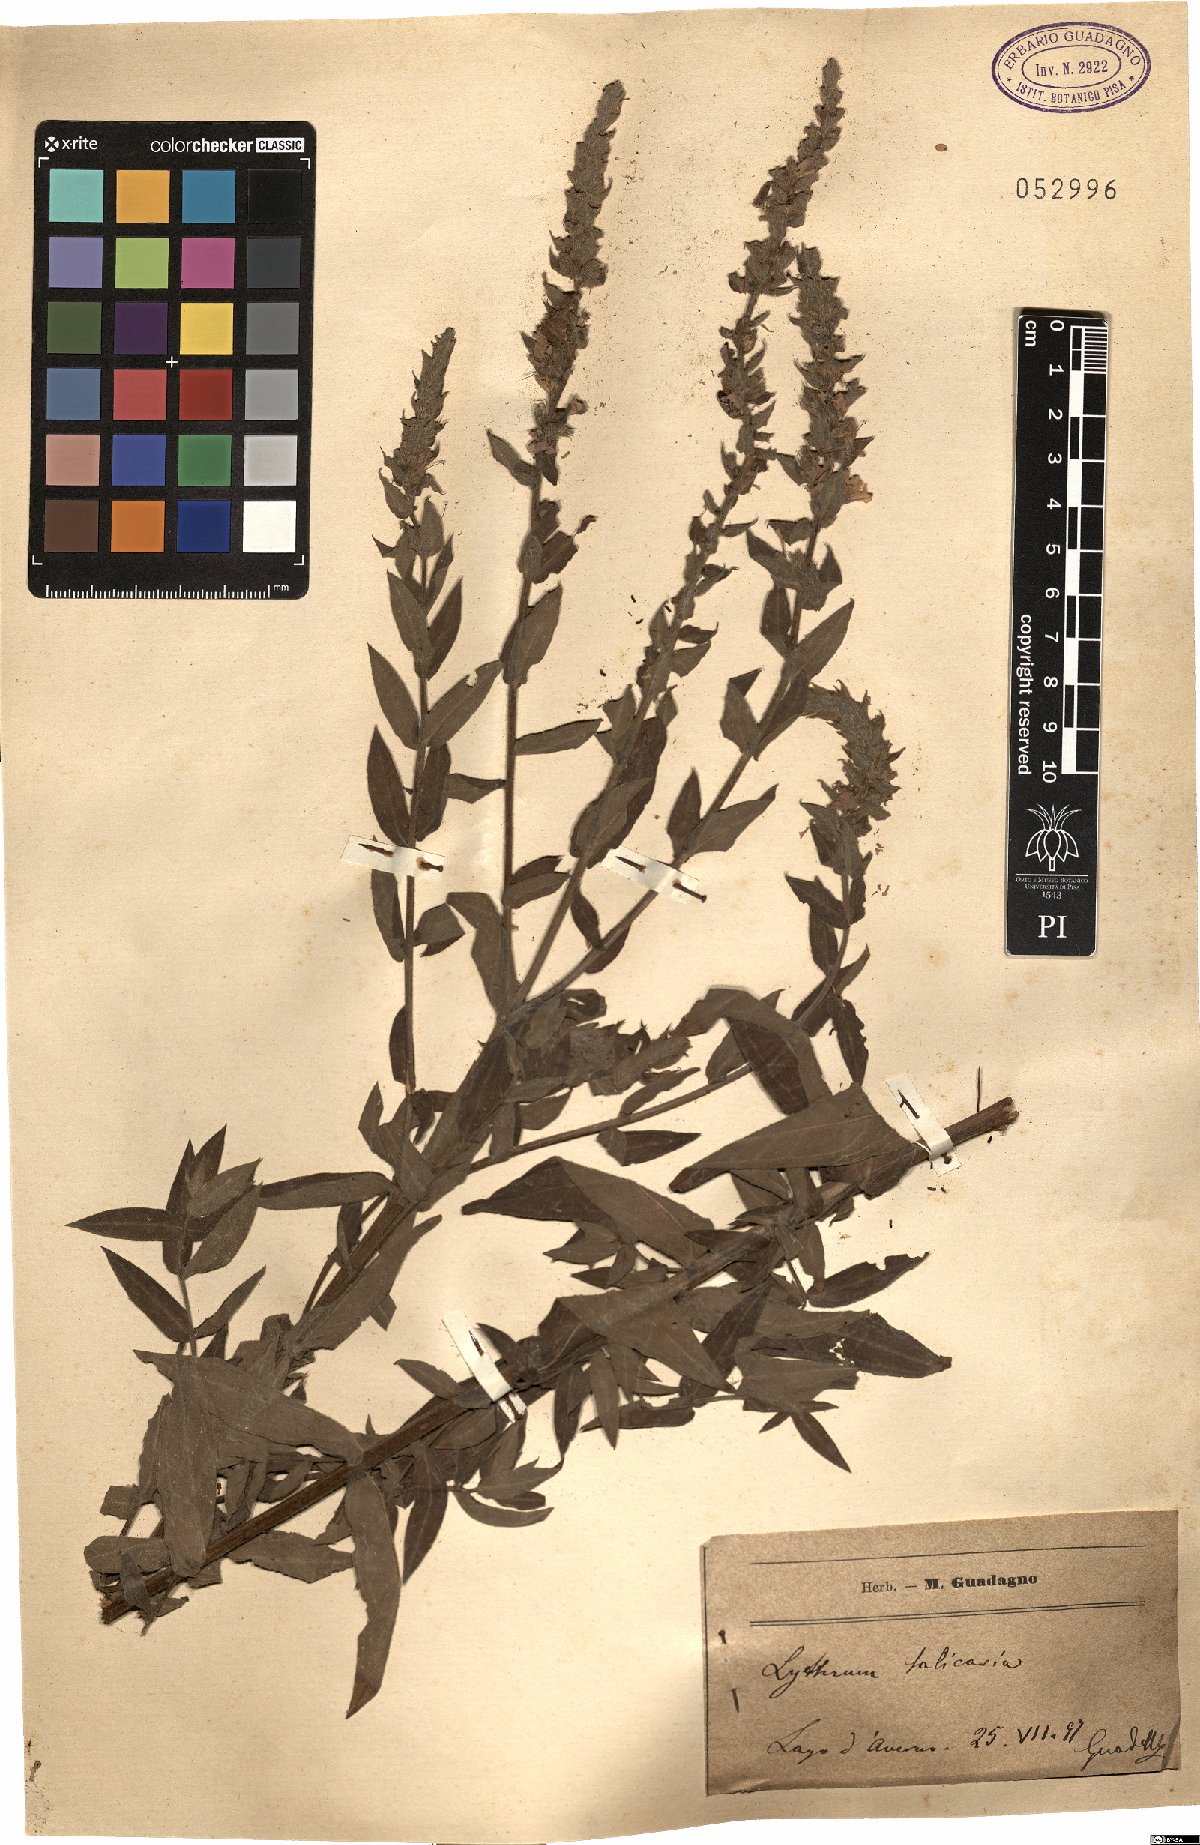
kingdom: Plantae
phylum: Tracheophyta
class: Magnoliopsida
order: Myrtales
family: Lythraceae
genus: Lythrum
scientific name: Lythrum salicaria
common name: Purple loosestrife
